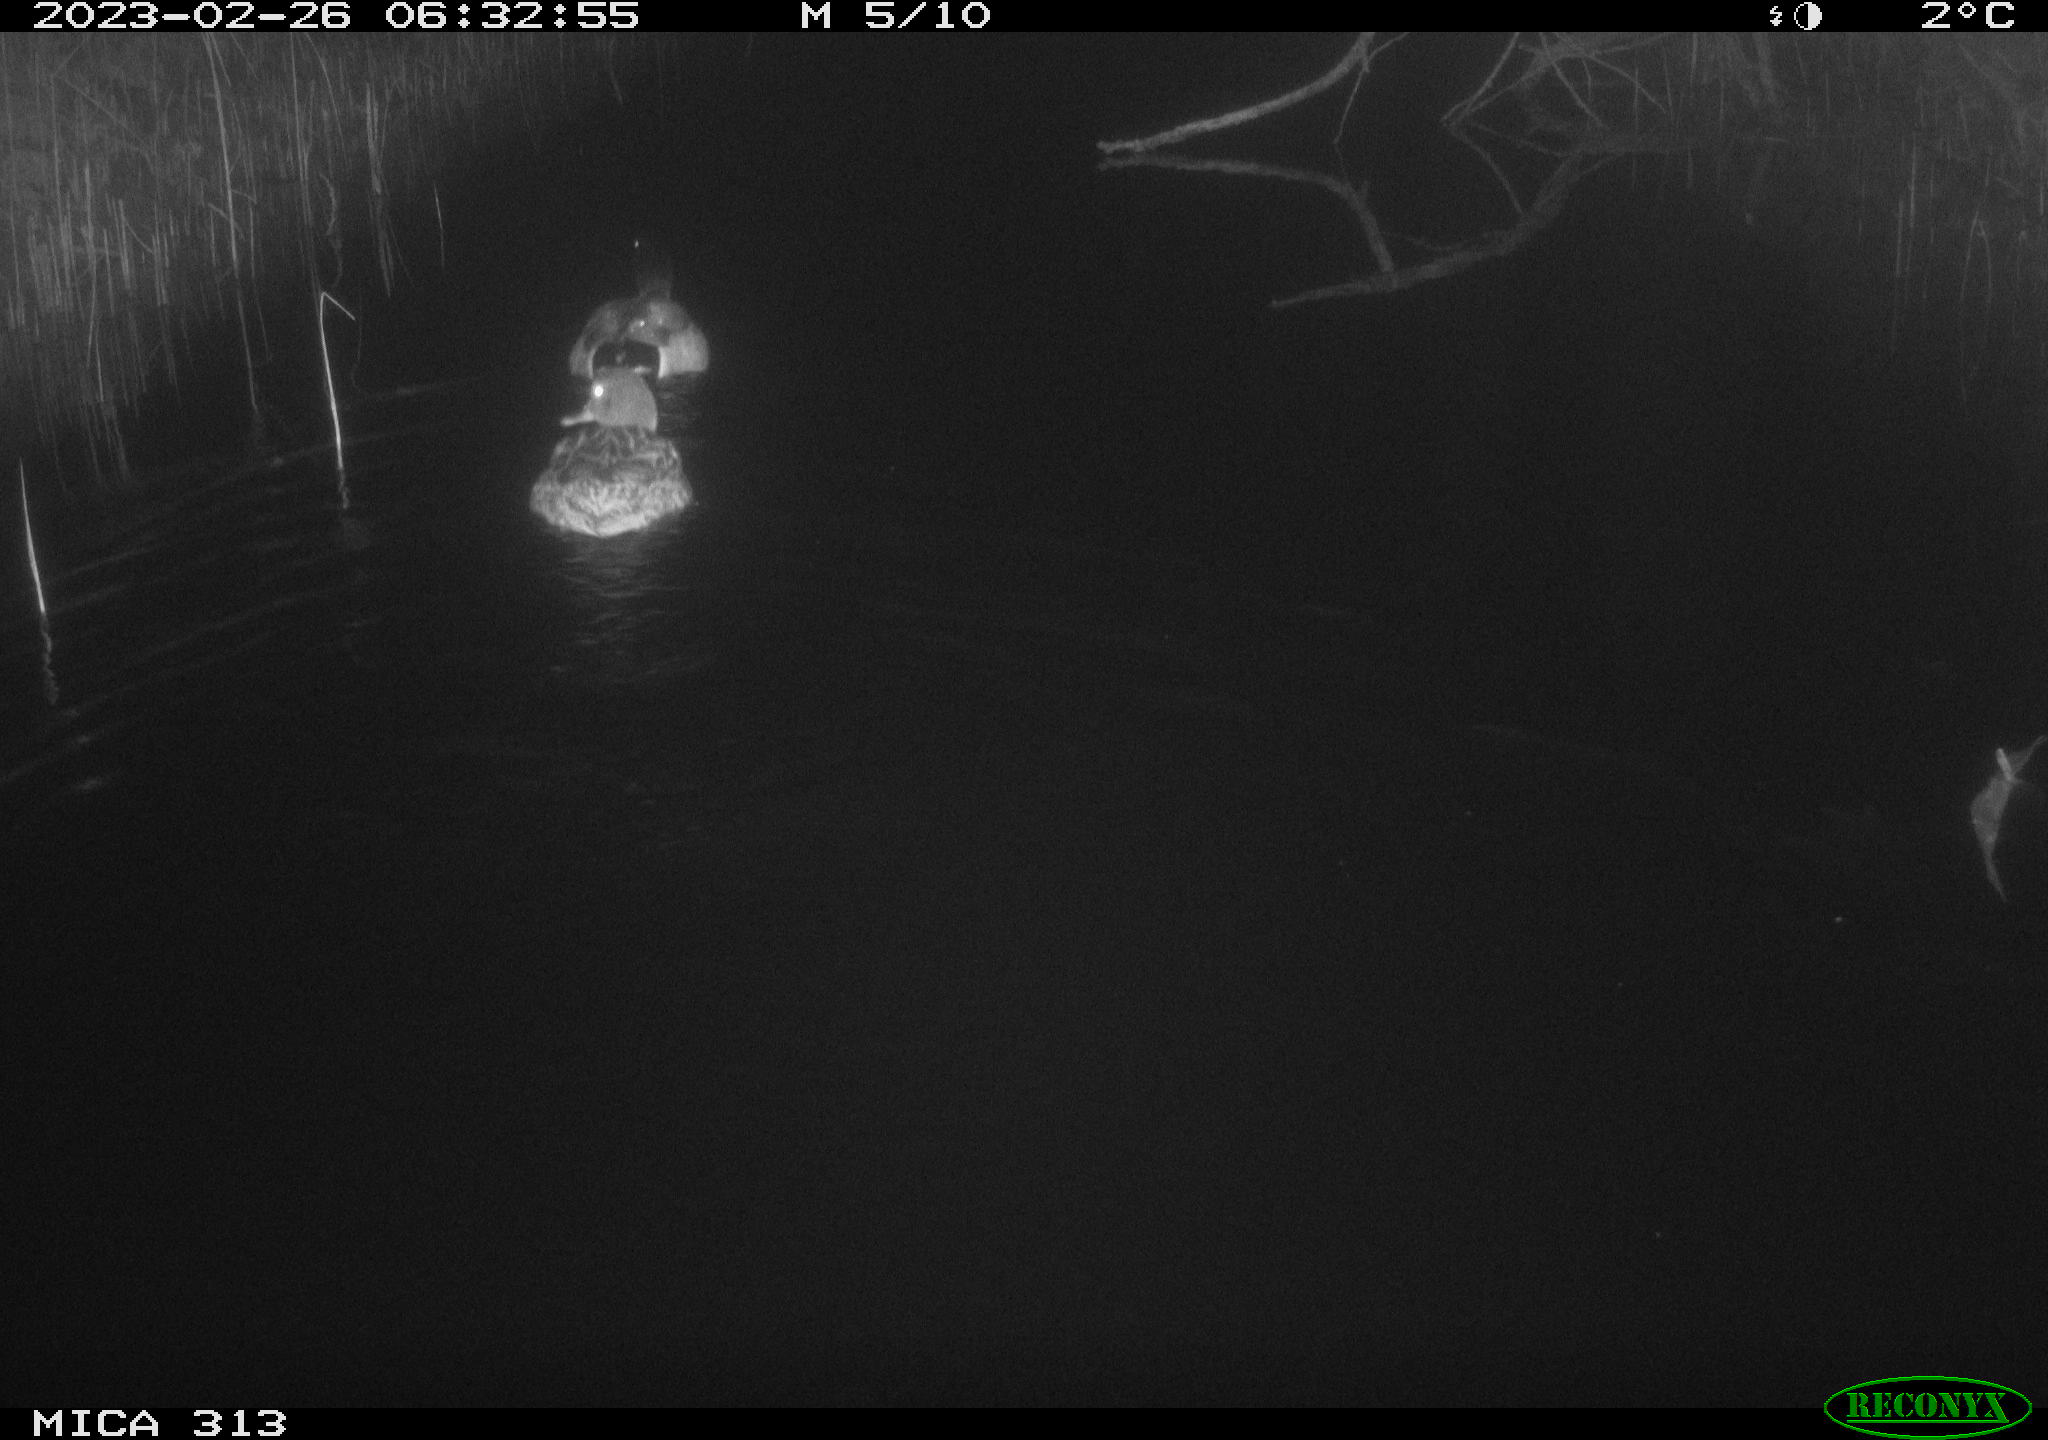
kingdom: Animalia
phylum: Chordata
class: Aves
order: Anseriformes
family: Anatidae
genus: Anas
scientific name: Anas
